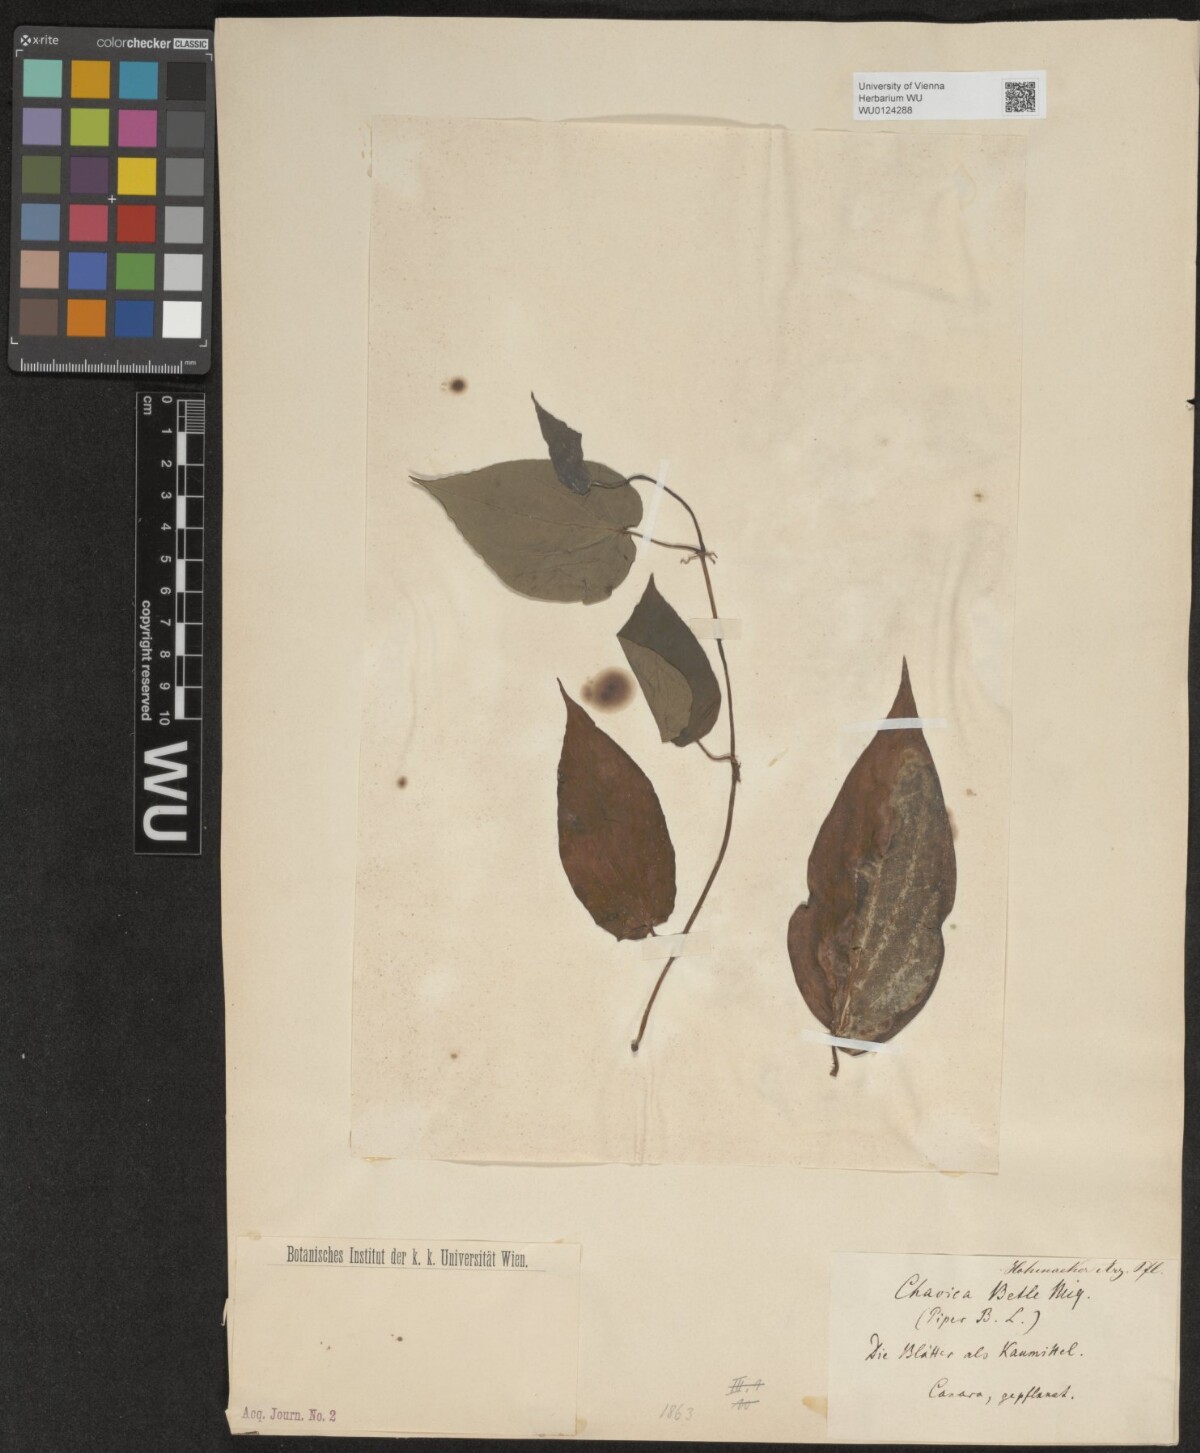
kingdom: Plantae
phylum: Tracheophyta
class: Magnoliopsida
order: Piperales
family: Piperaceae
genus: Piper
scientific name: Piper betle
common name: Betel pepper
